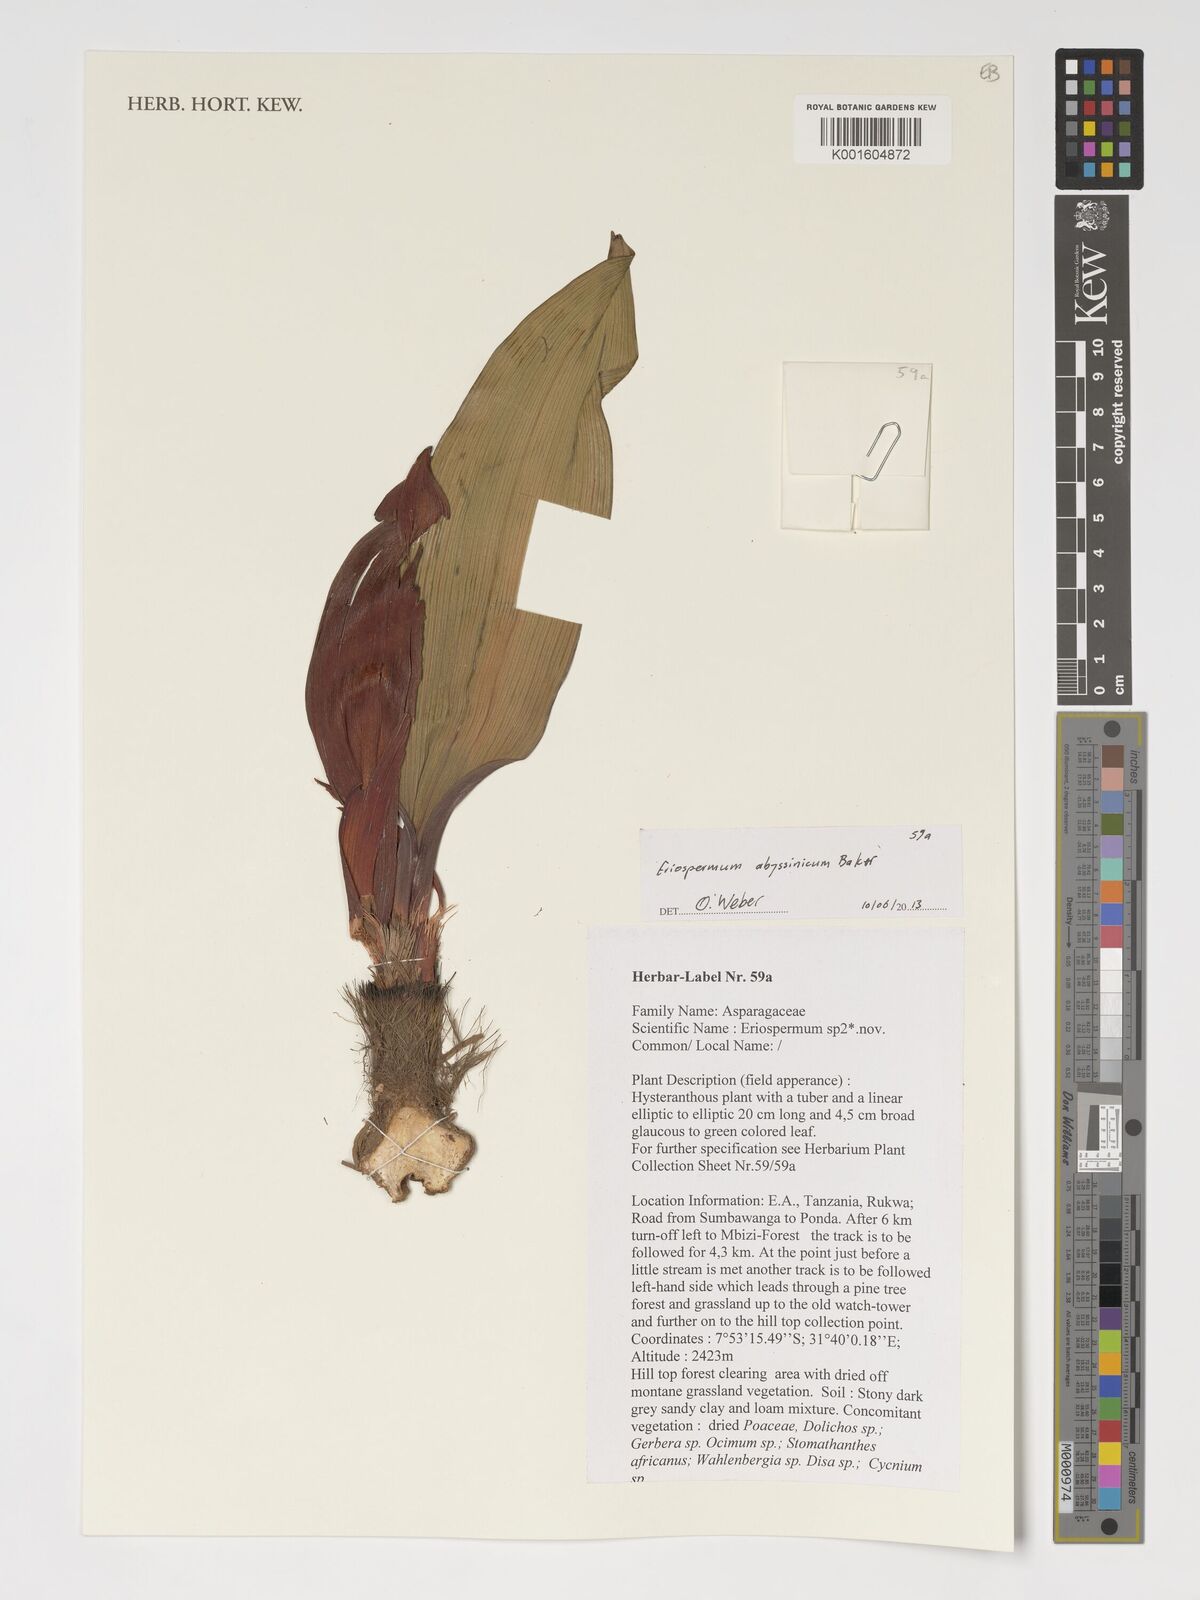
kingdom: Plantae
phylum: Tracheophyta
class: Liliopsida
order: Asparagales
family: Asparagaceae
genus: Eriospermum
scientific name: Eriospermum abyssinicum
